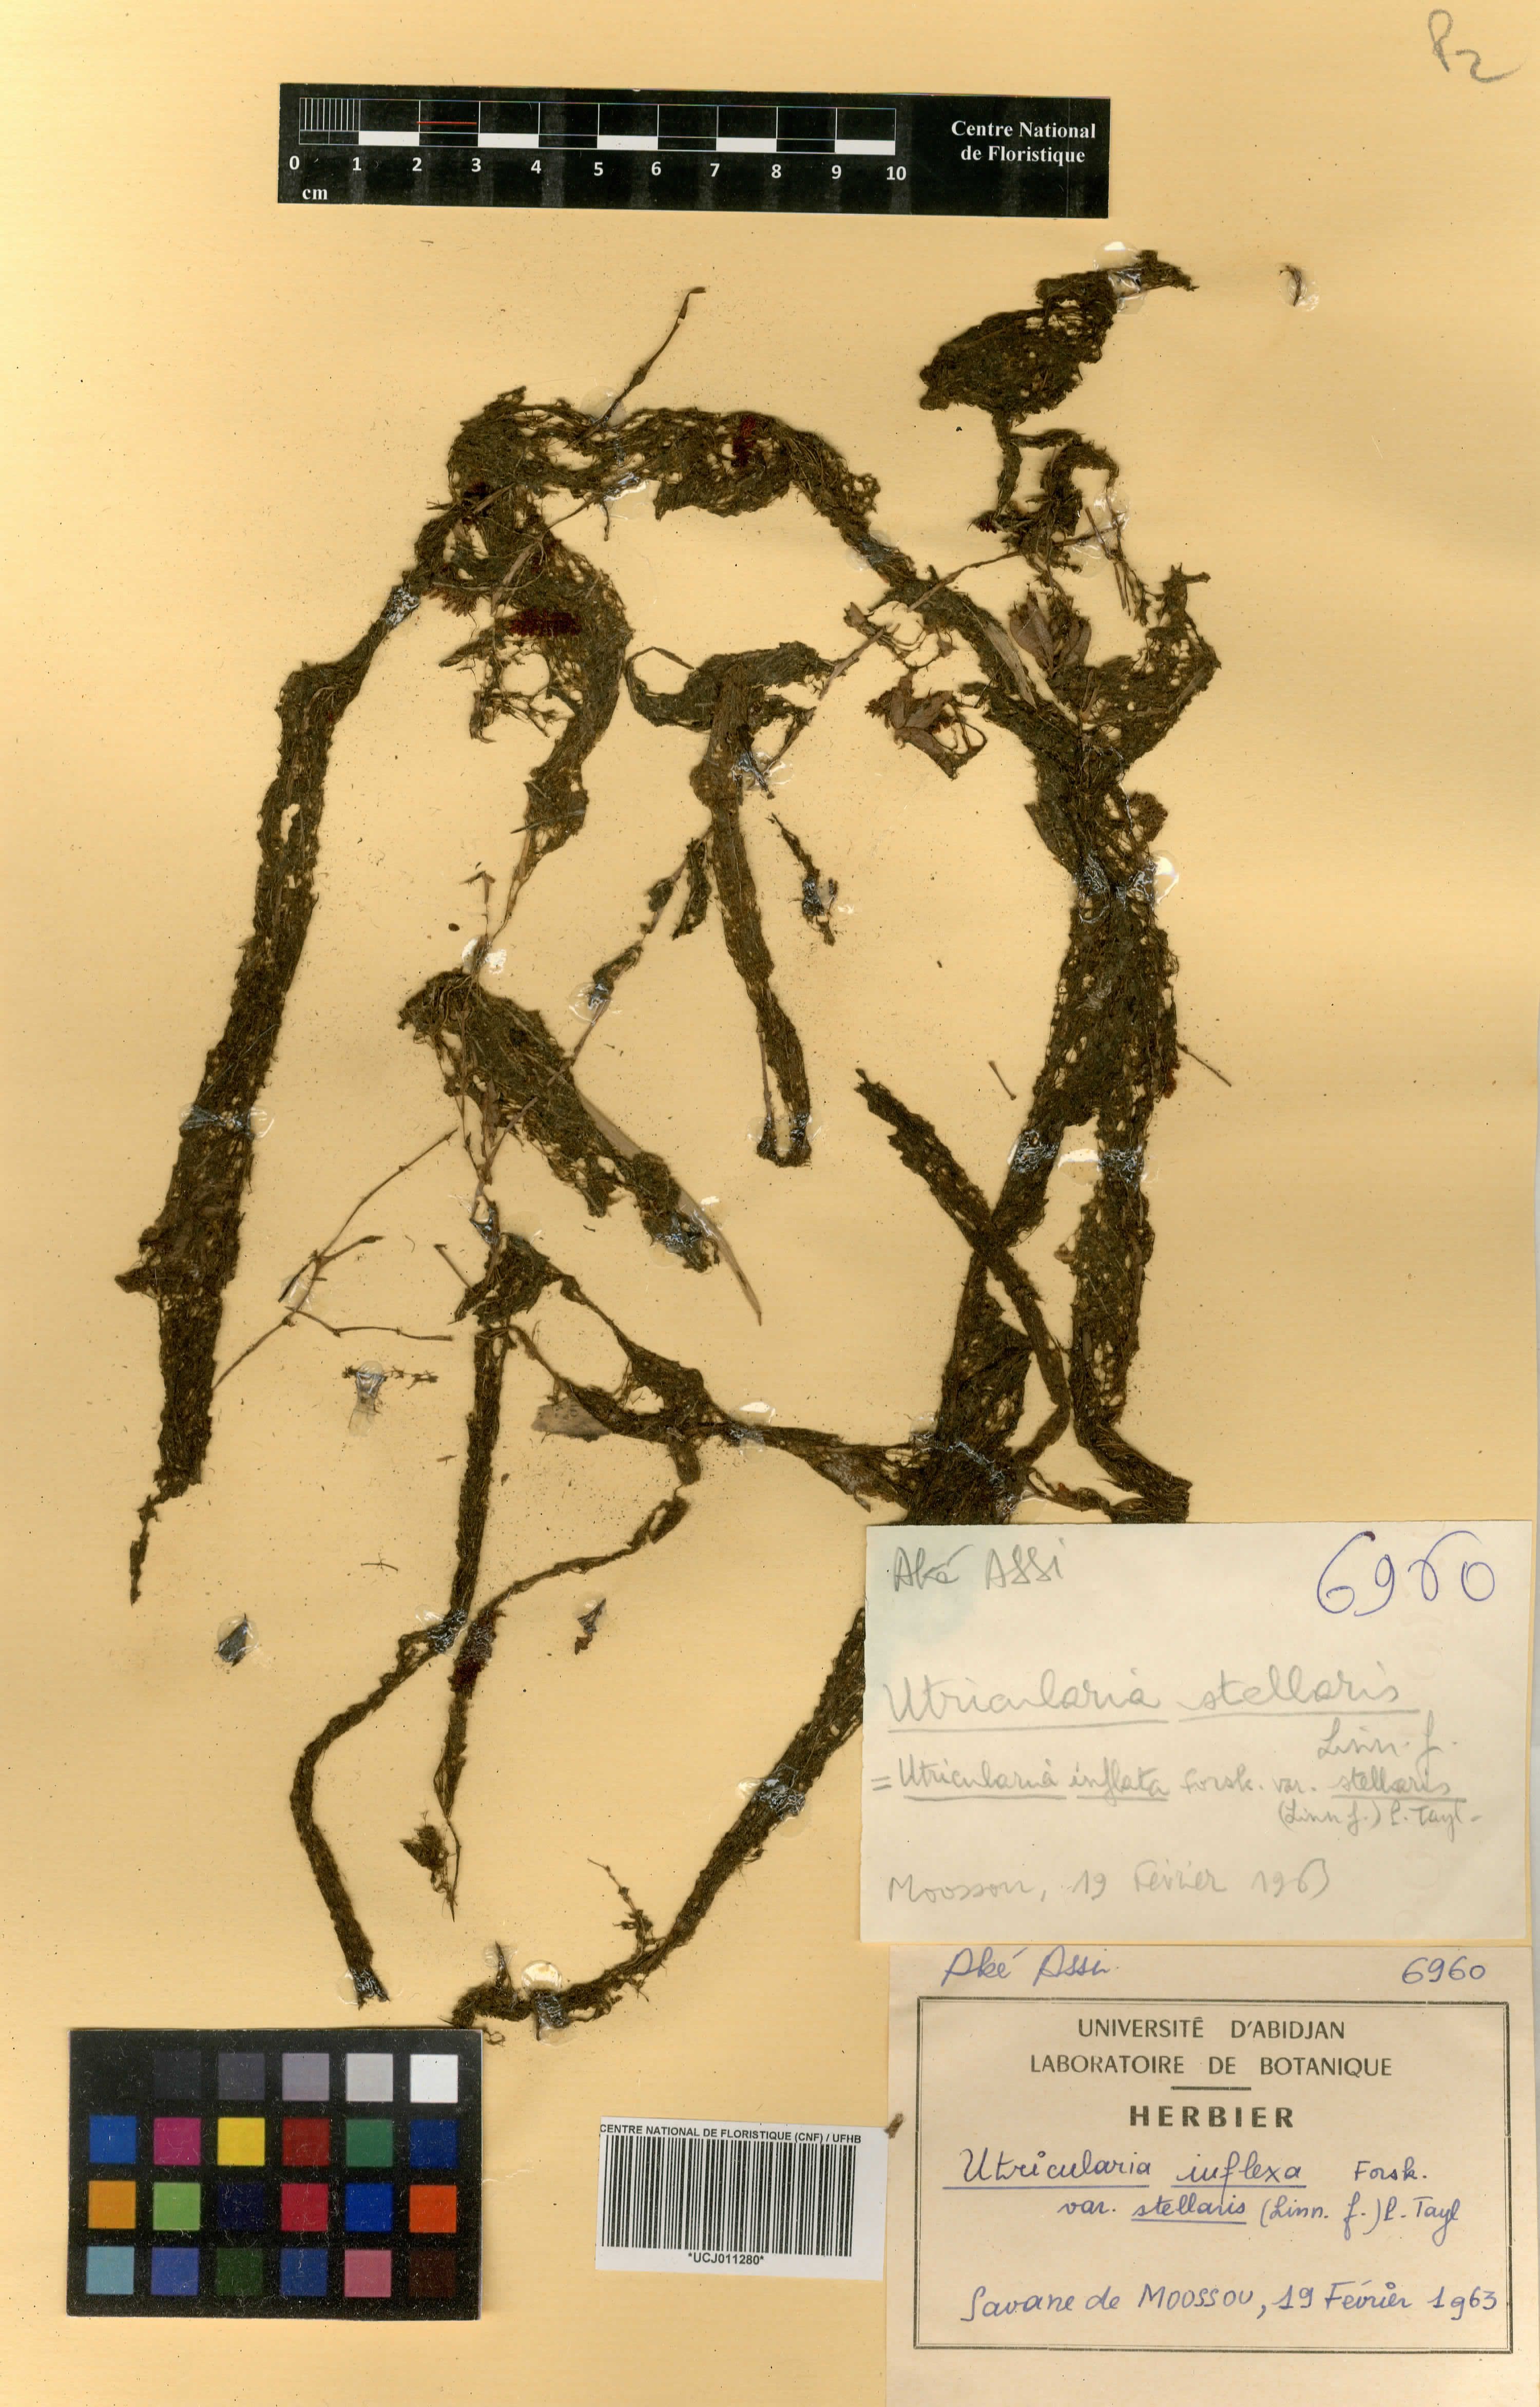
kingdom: Plantae
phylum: Tracheophyta
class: Magnoliopsida
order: Lamiales
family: Lentibulariaceae
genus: Utricularia
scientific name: Utricularia inflexa
